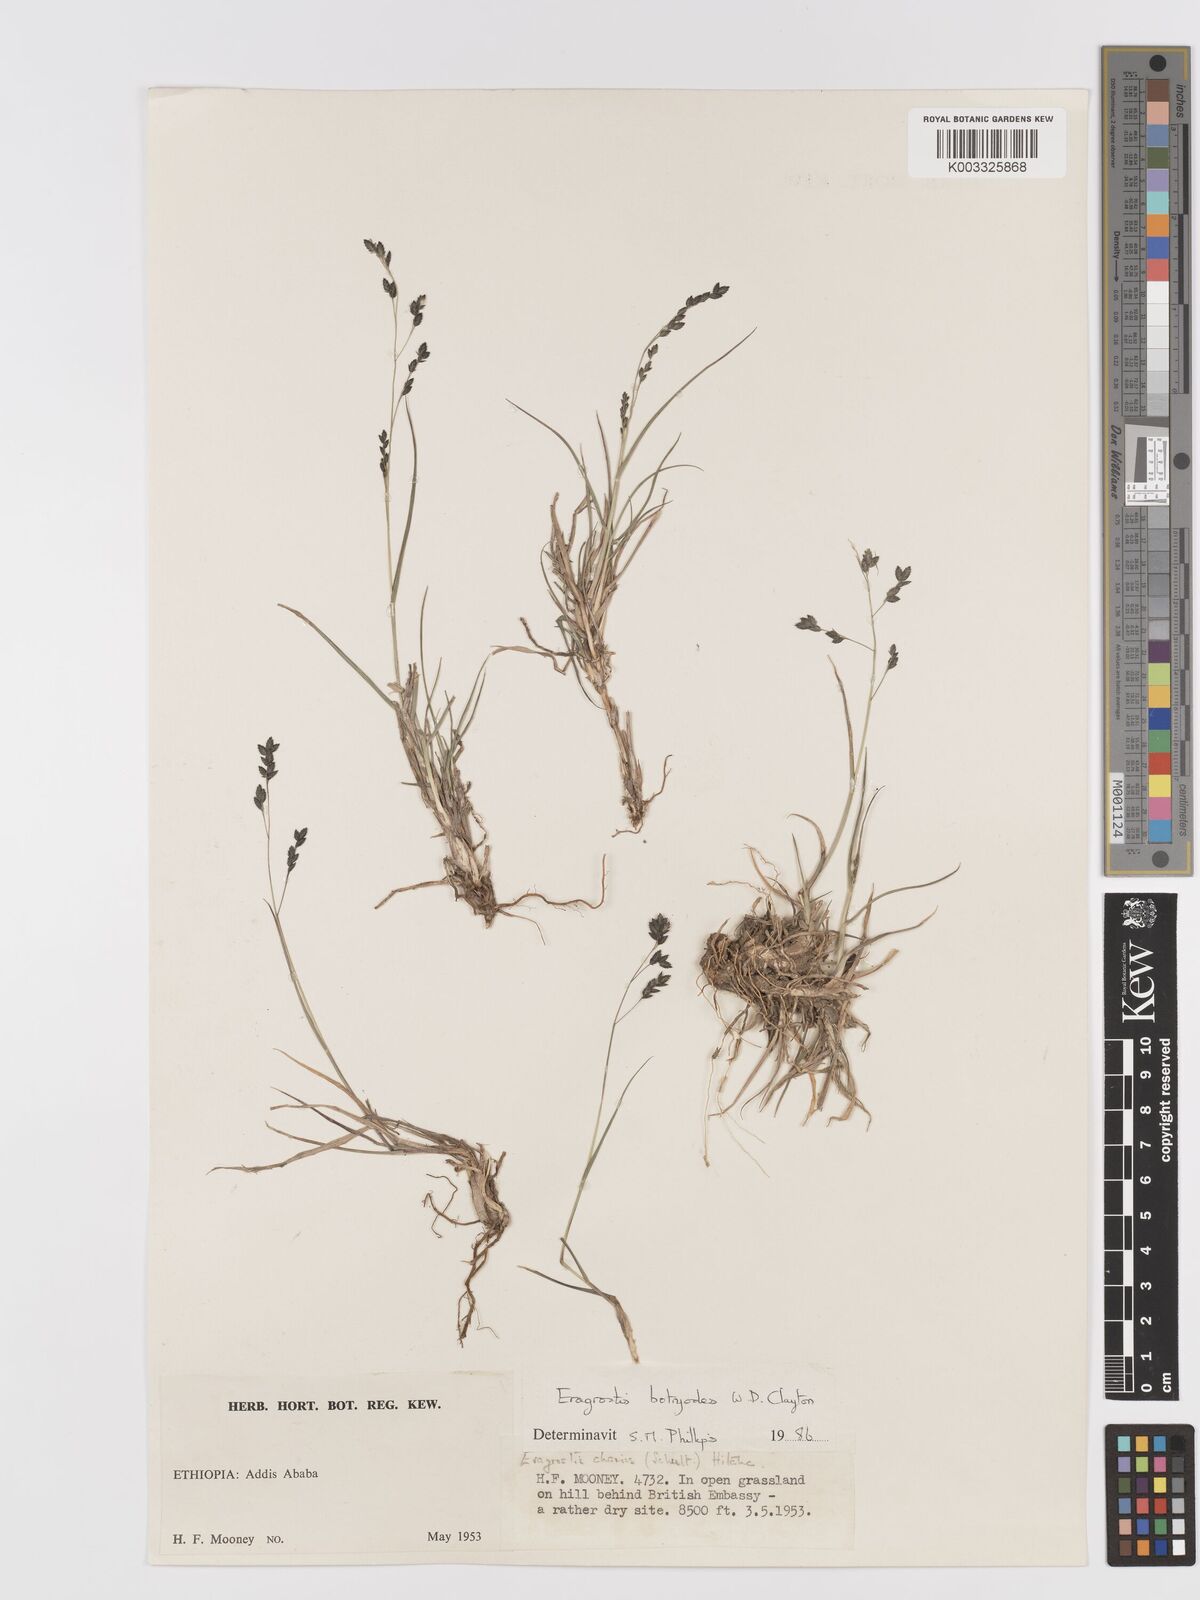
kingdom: Plantae
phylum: Tracheophyta
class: Liliopsida
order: Poales
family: Poaceae
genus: Eragrostis
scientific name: Eragrostis botryodes
